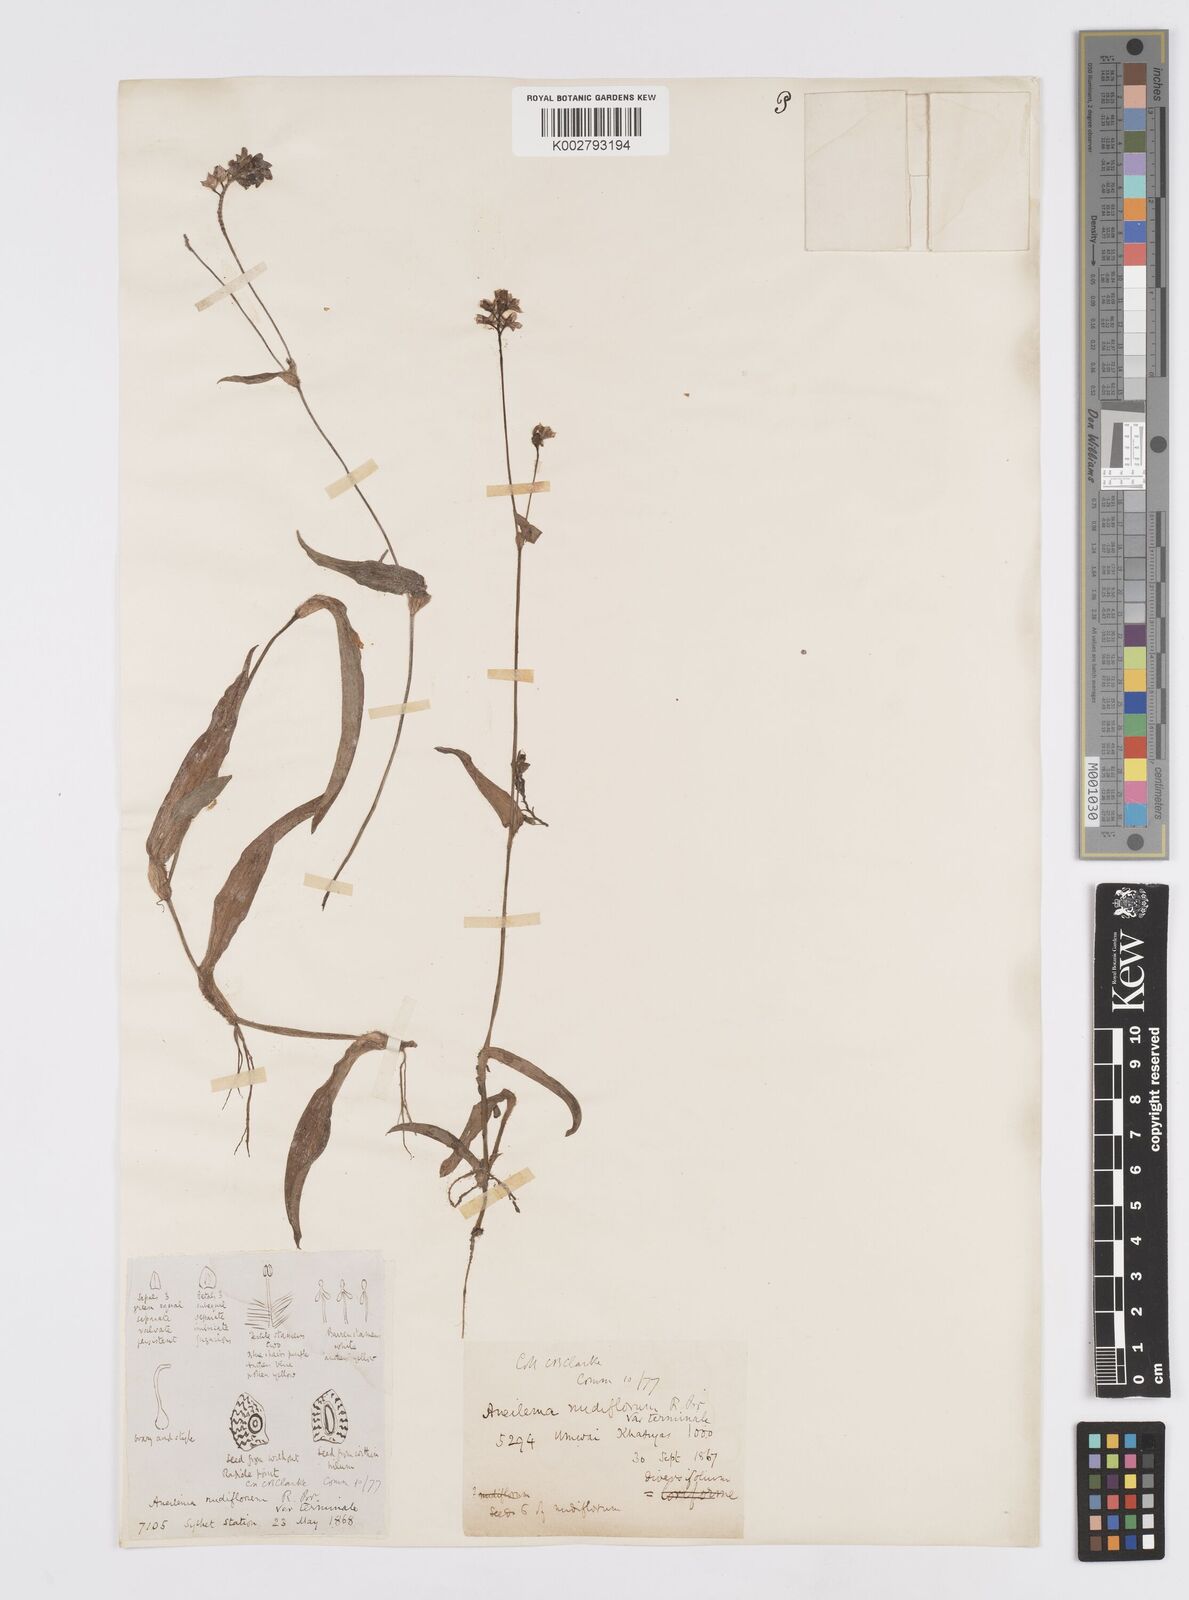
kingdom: Plantae
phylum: Tracheophyta
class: Liliopsida
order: Commelinales
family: Commelinaceae
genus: Murdannia
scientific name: Murdannia nudiflora
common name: Nakedstem dewflower
